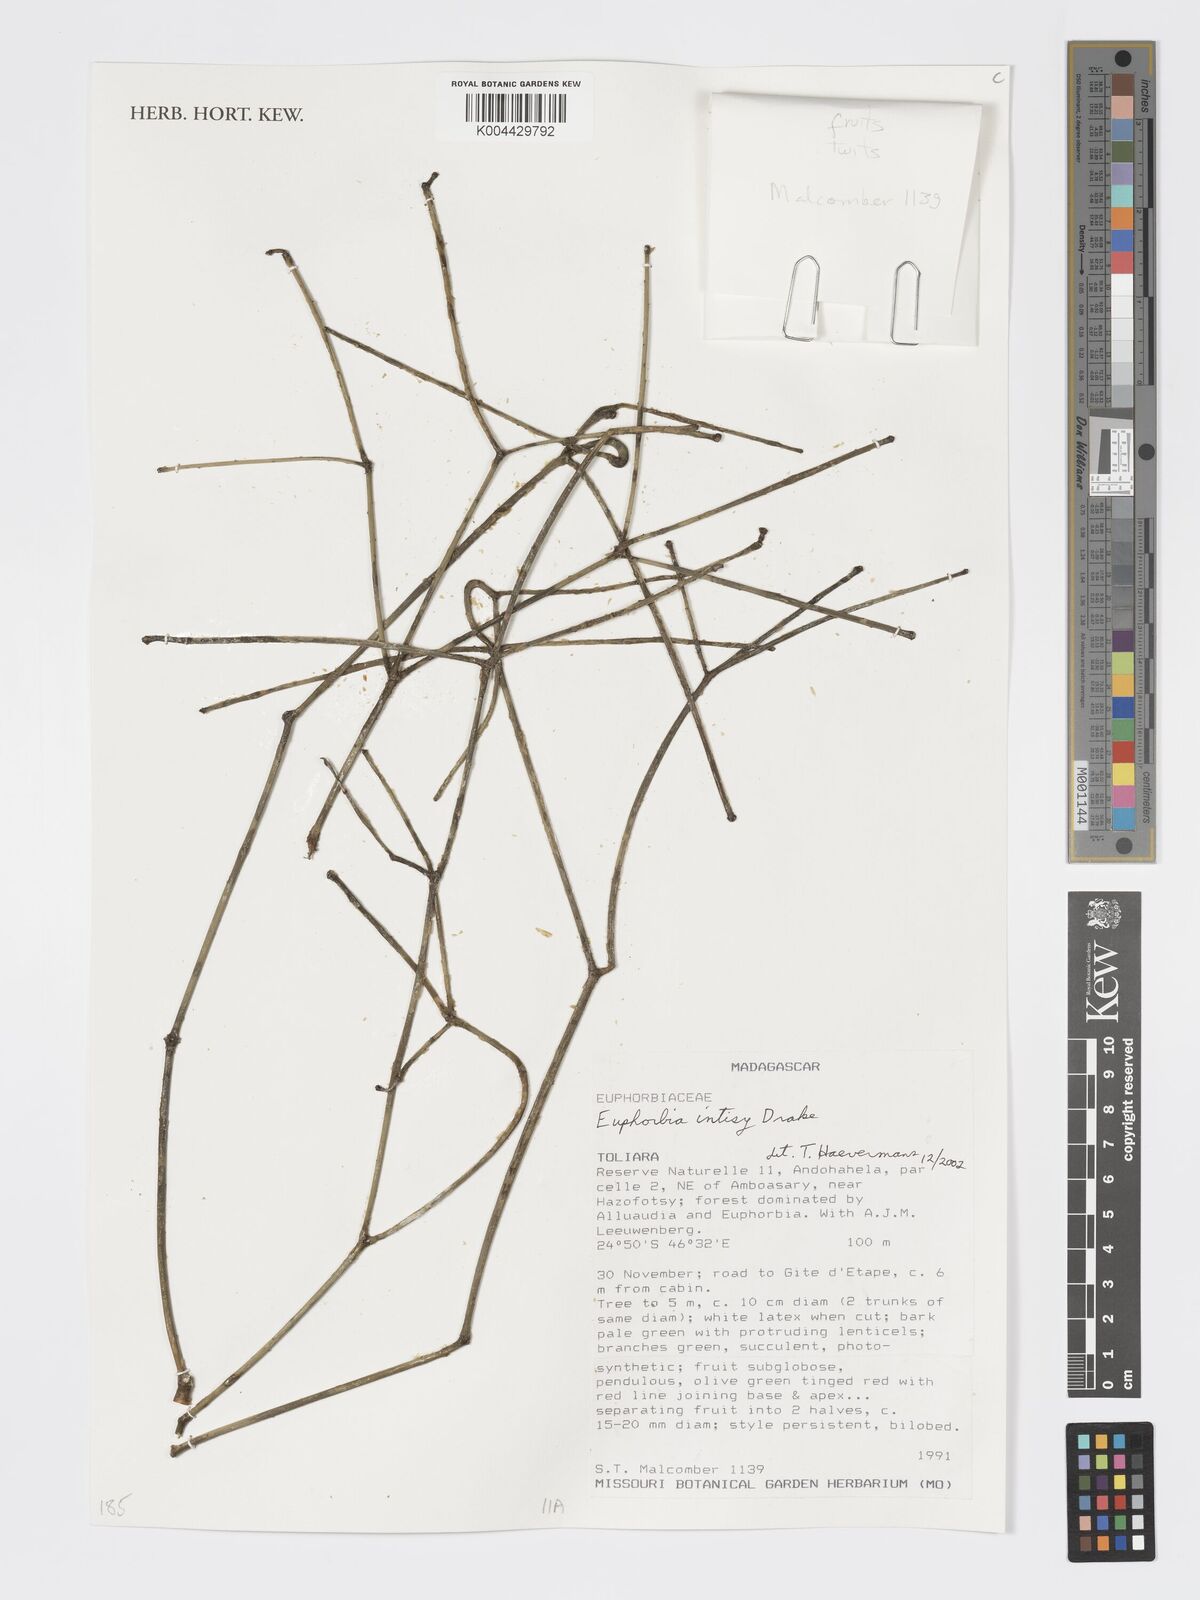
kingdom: Plantae
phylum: Tracheophyta
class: Magnoliopsida
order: Malpighiales
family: Euphorbiaceae
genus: Euphorbia
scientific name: Euphorbia intisy
